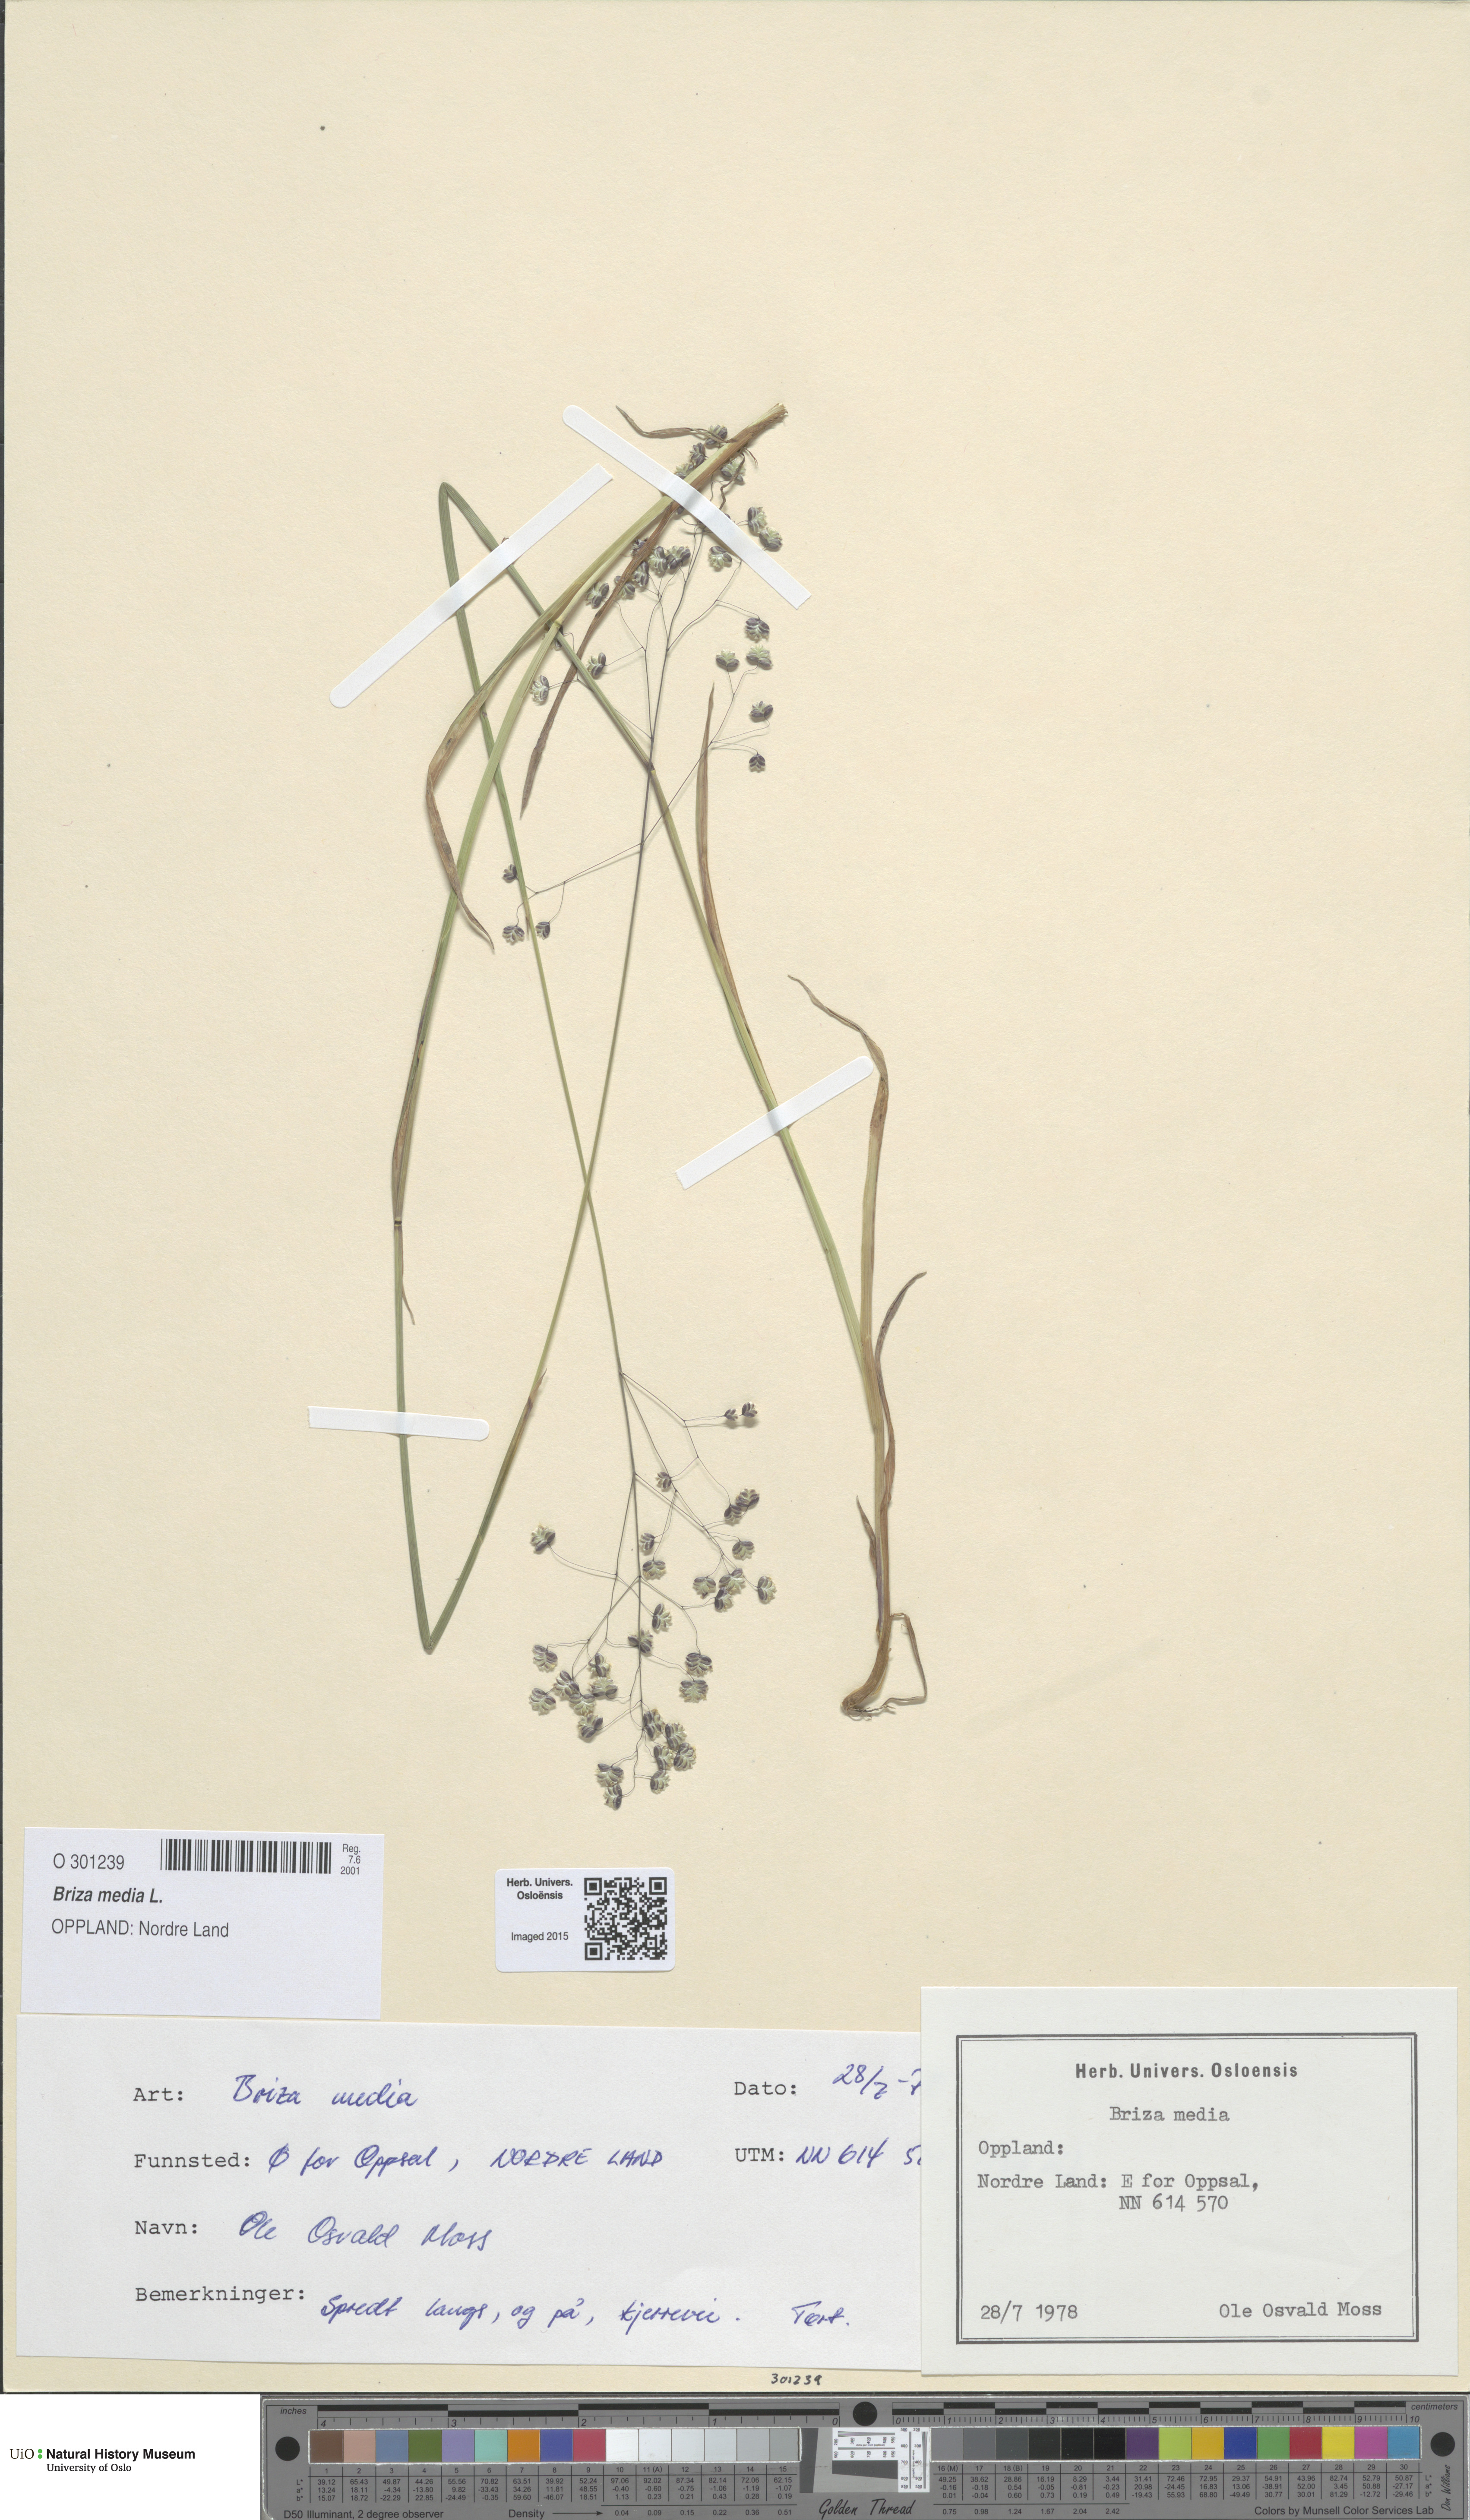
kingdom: Plantae
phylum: Tracheophyta
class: Liliopsida
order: Poales
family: Poaceae
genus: Briza
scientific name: Briza media
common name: Quaking grass
